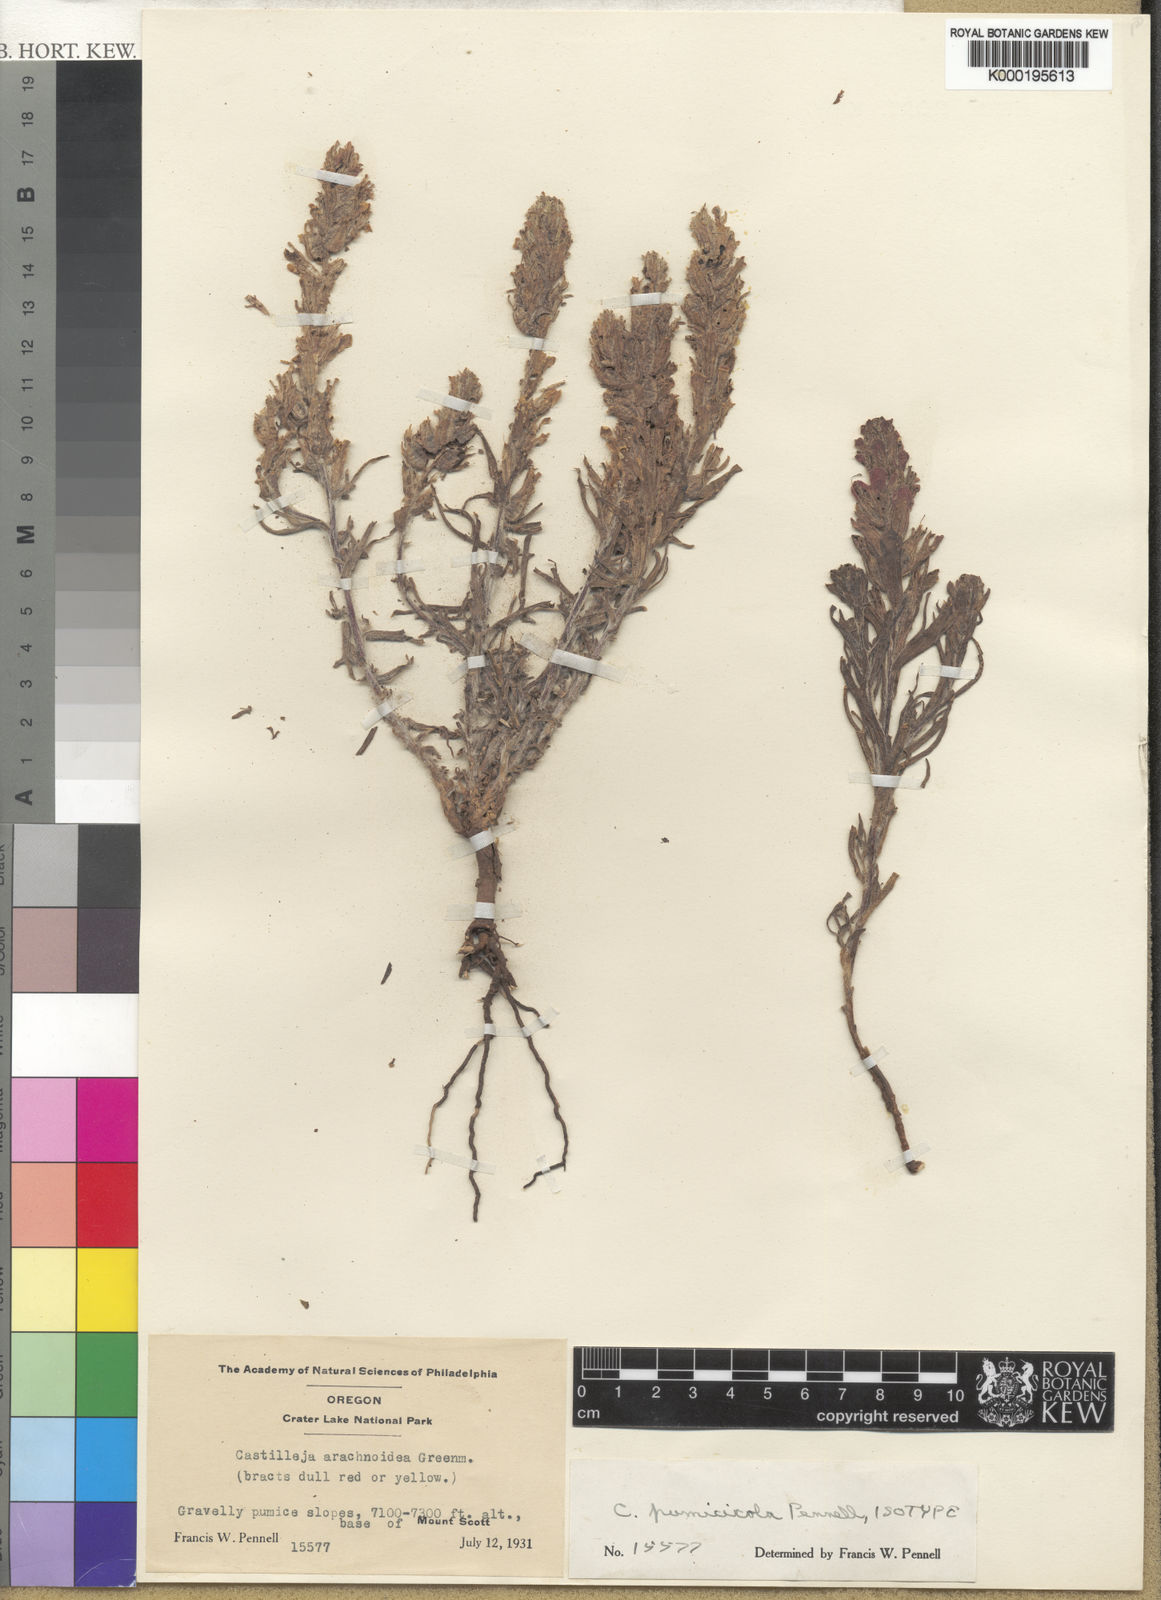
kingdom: Plantae
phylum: Tracheophyta
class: Magnoliopsida
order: Lamiales
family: Orobanchaceae
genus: Castilleja
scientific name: Castilleja arachnoidea
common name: Cobwebby indian paintbrush
